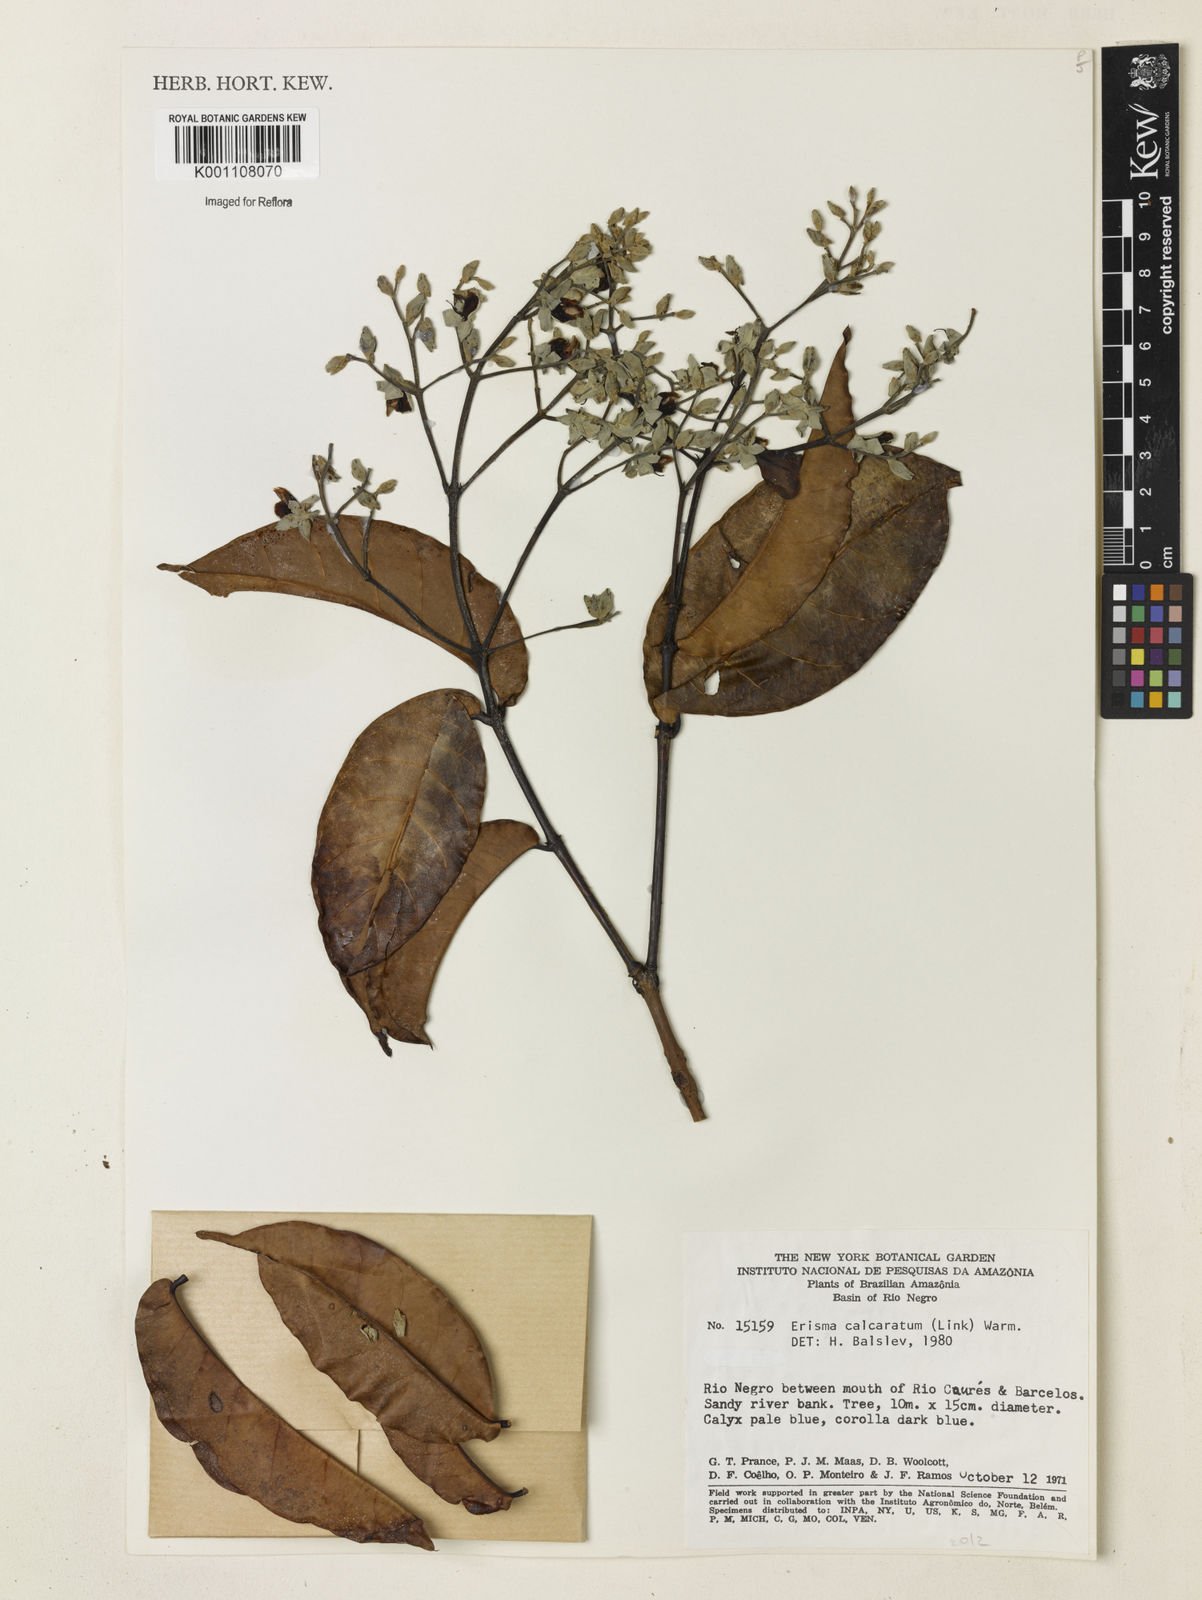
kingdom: Plantae
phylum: Tracheophyta
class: Magnoliopsida
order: Myrtales
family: Vochysiaceae
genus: Erisma
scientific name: Erisma calcaratum
